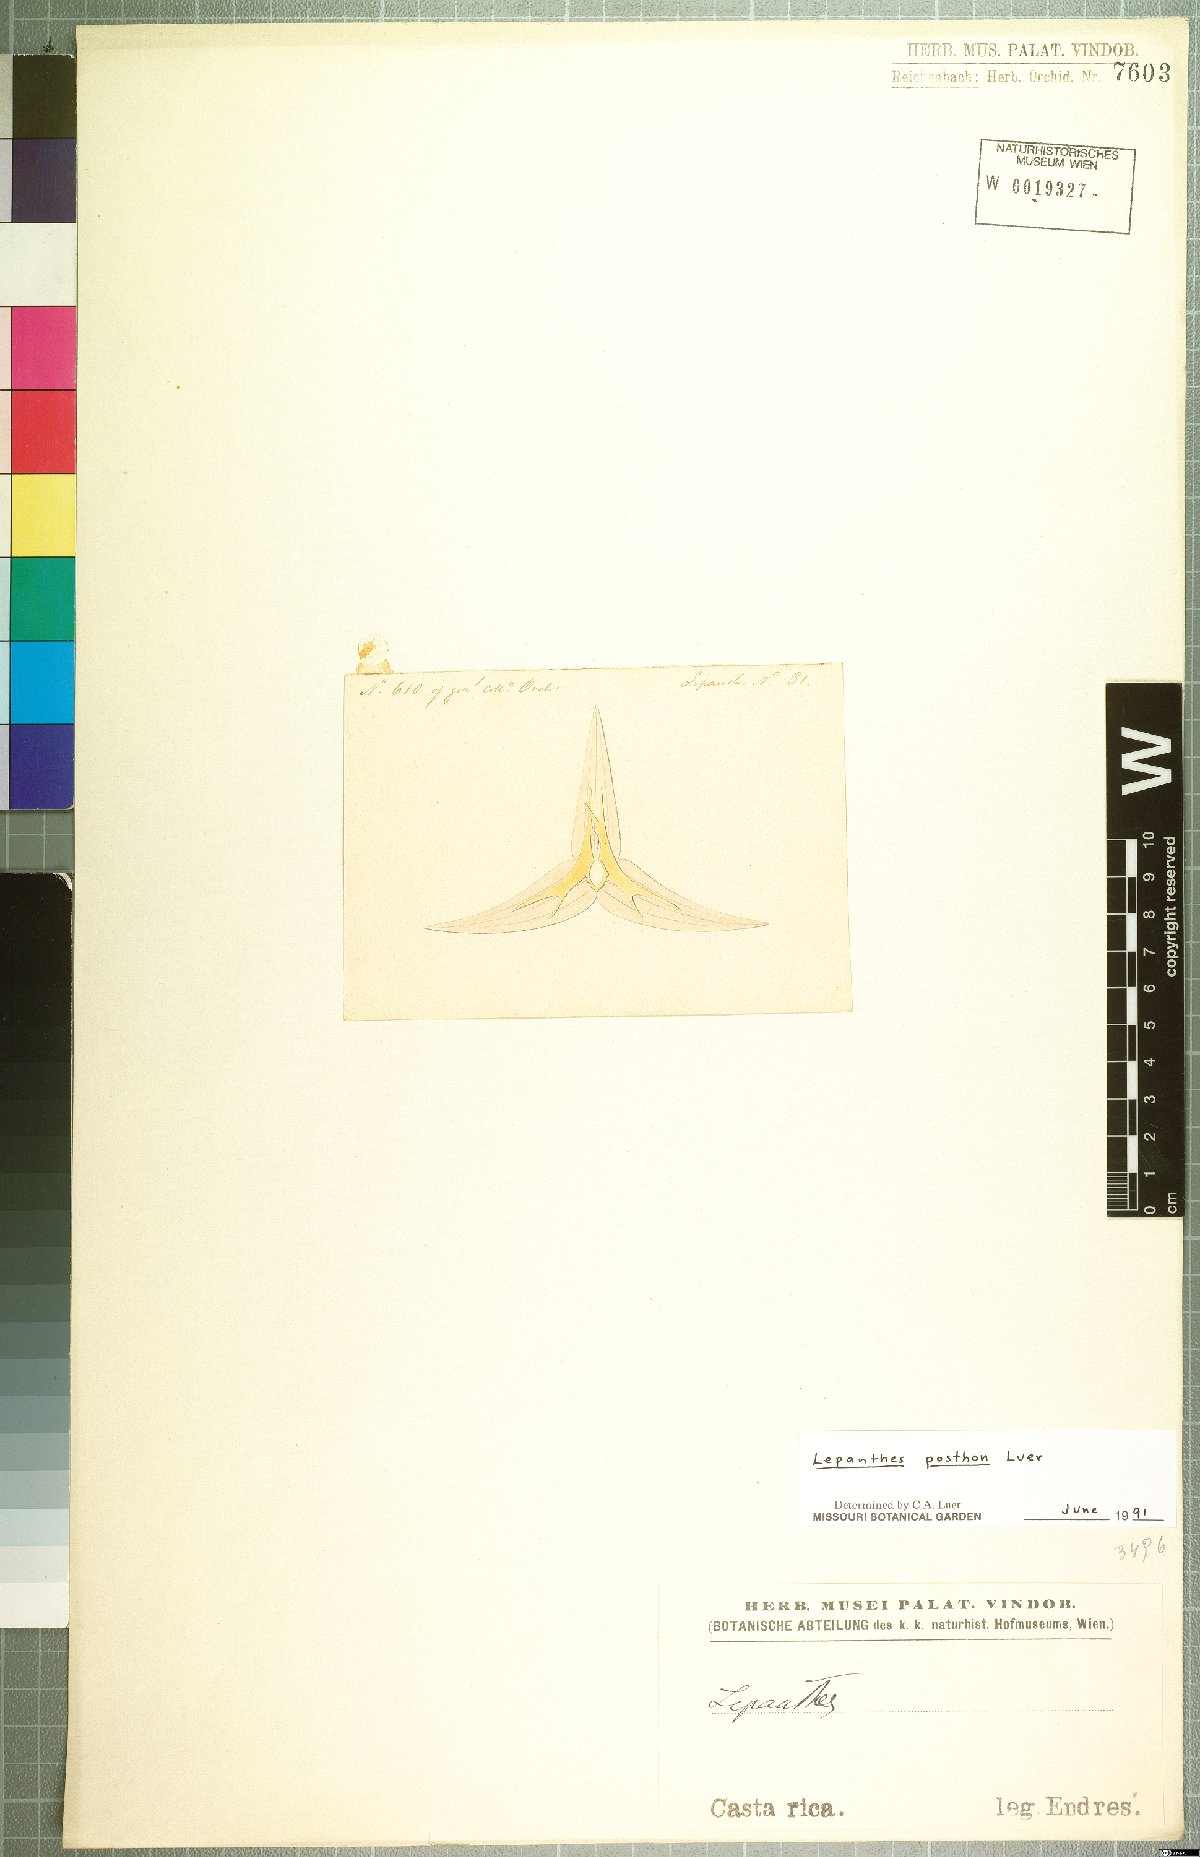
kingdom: Plantae
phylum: Tracheophyta
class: Liliopsida
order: Asparagales
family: Orchidaceae
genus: Lepanthes
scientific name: Lepanthes posthon
